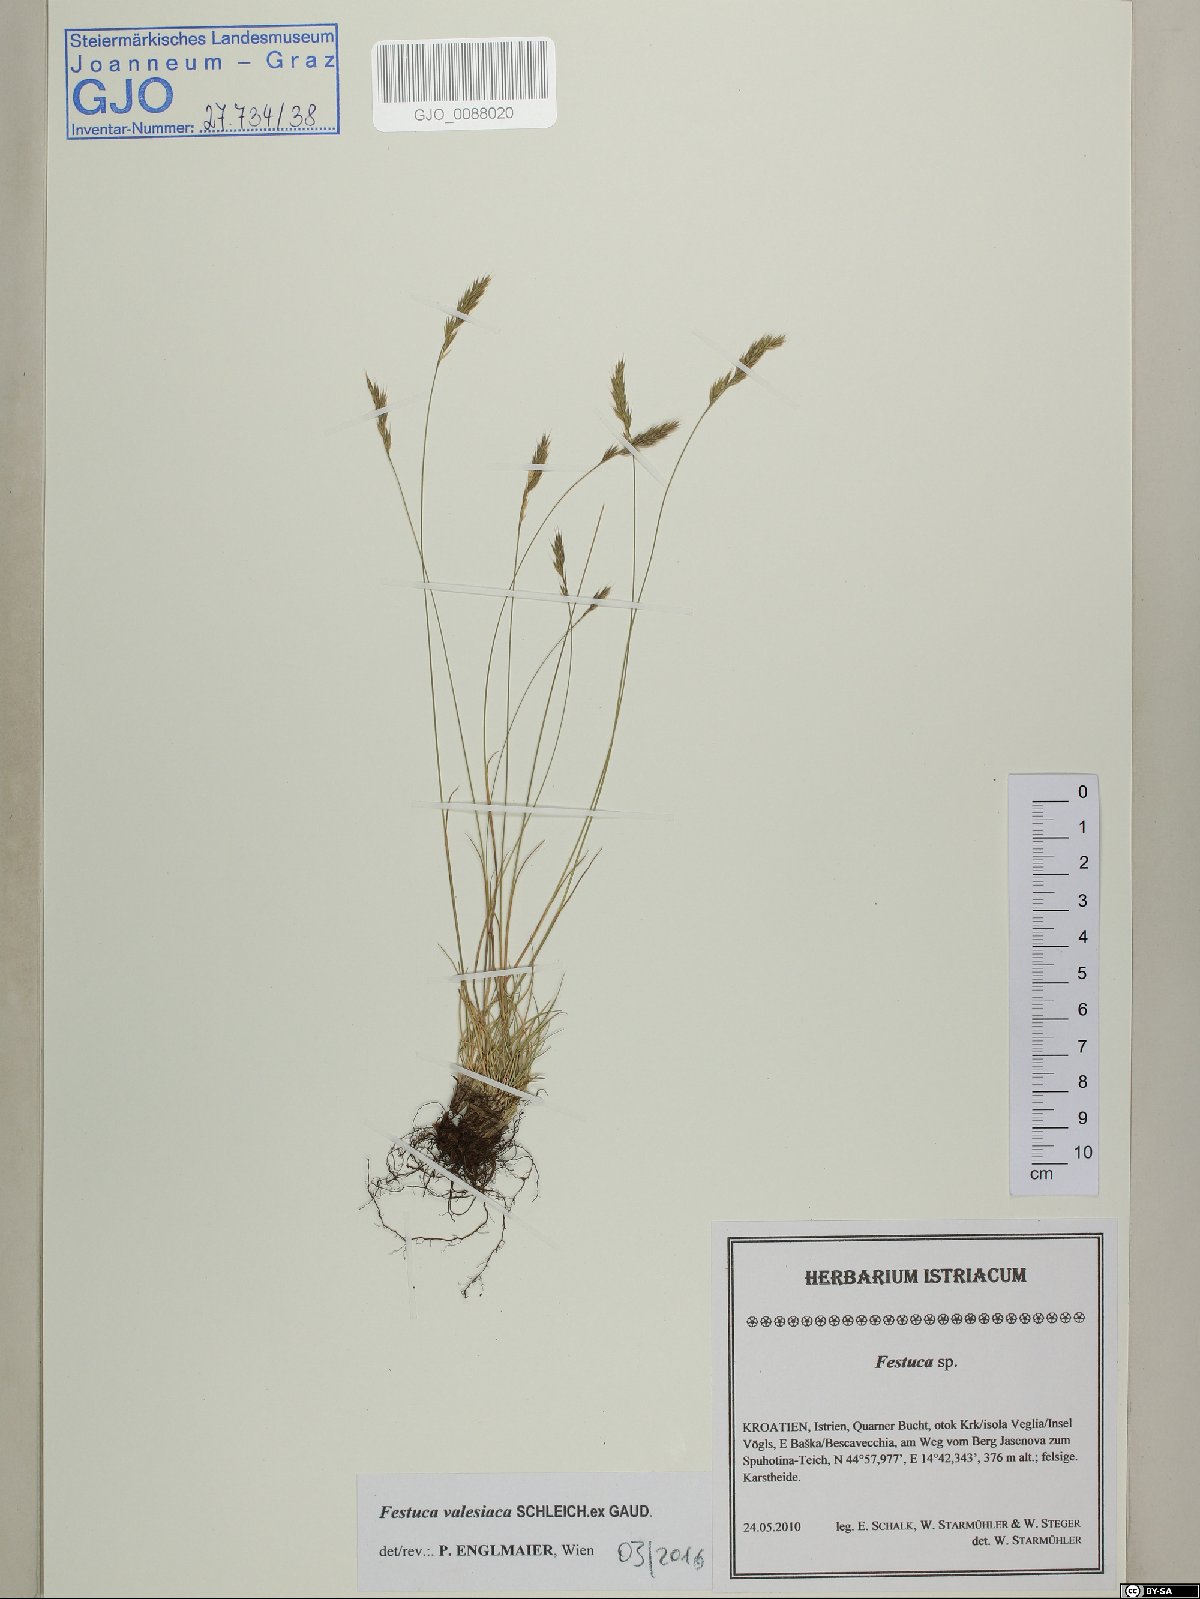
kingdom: Plantae
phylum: Tracheophyta
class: Liliopsida
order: Poales
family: Poaceae
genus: Festuca
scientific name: Festuca valesiaca
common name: Volga fescue
